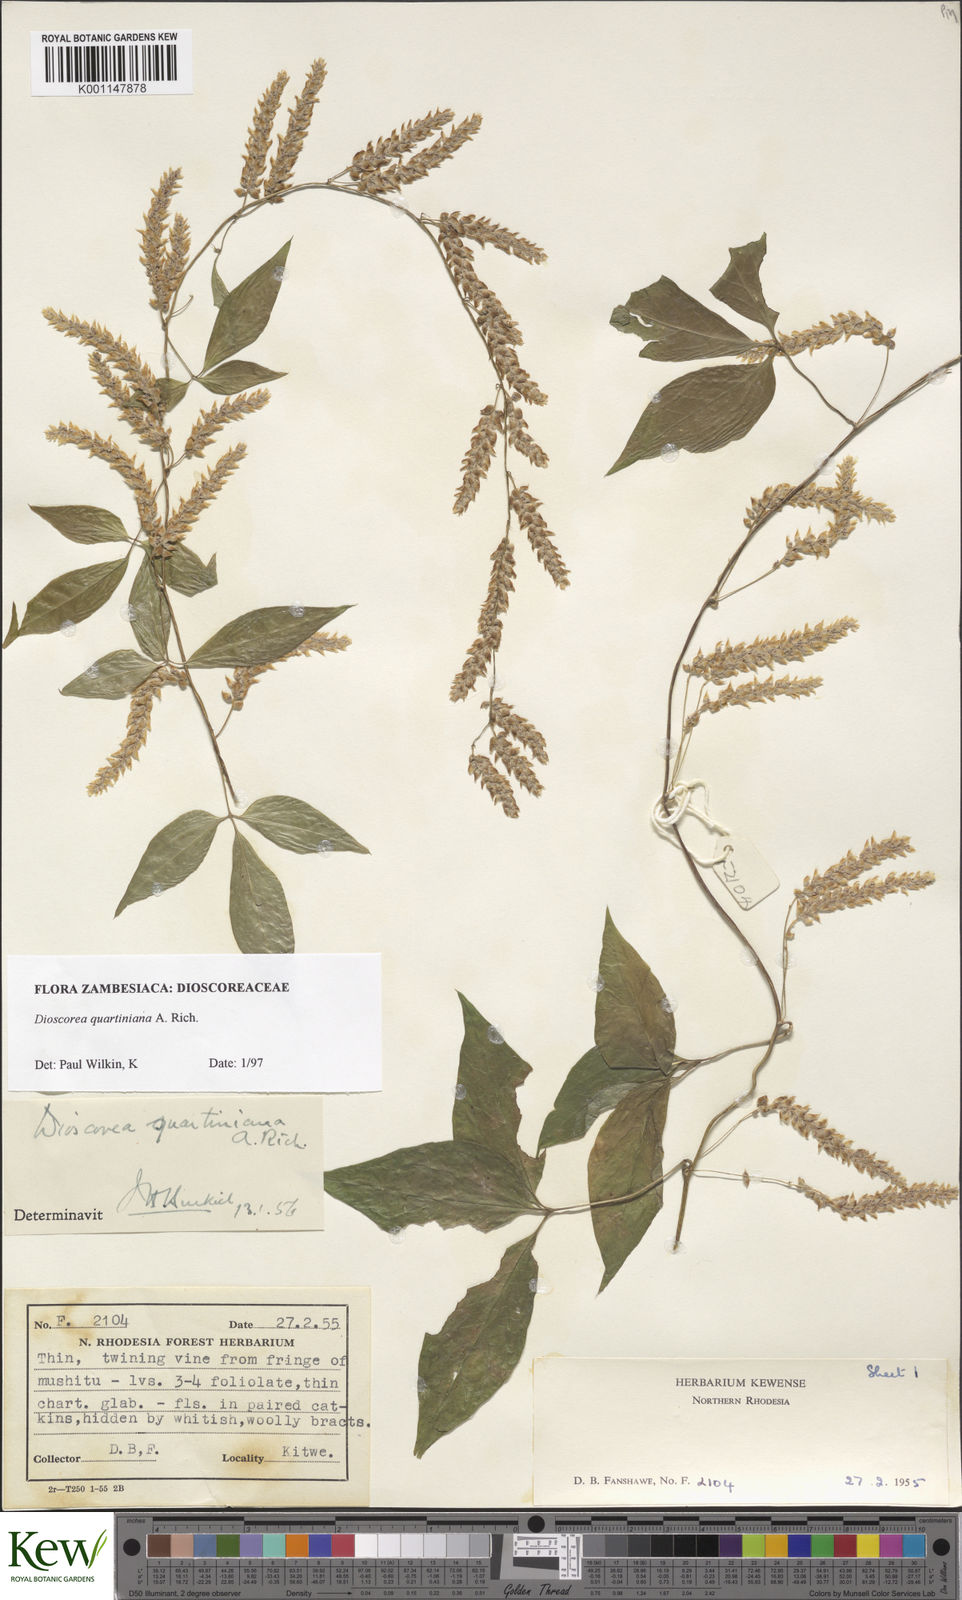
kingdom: Plantae
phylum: Tracheophyta
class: Liliopsida
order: Dioscoreales
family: Dioscoreaceae
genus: Dioscorea
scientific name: Dioscorea quartiniana
